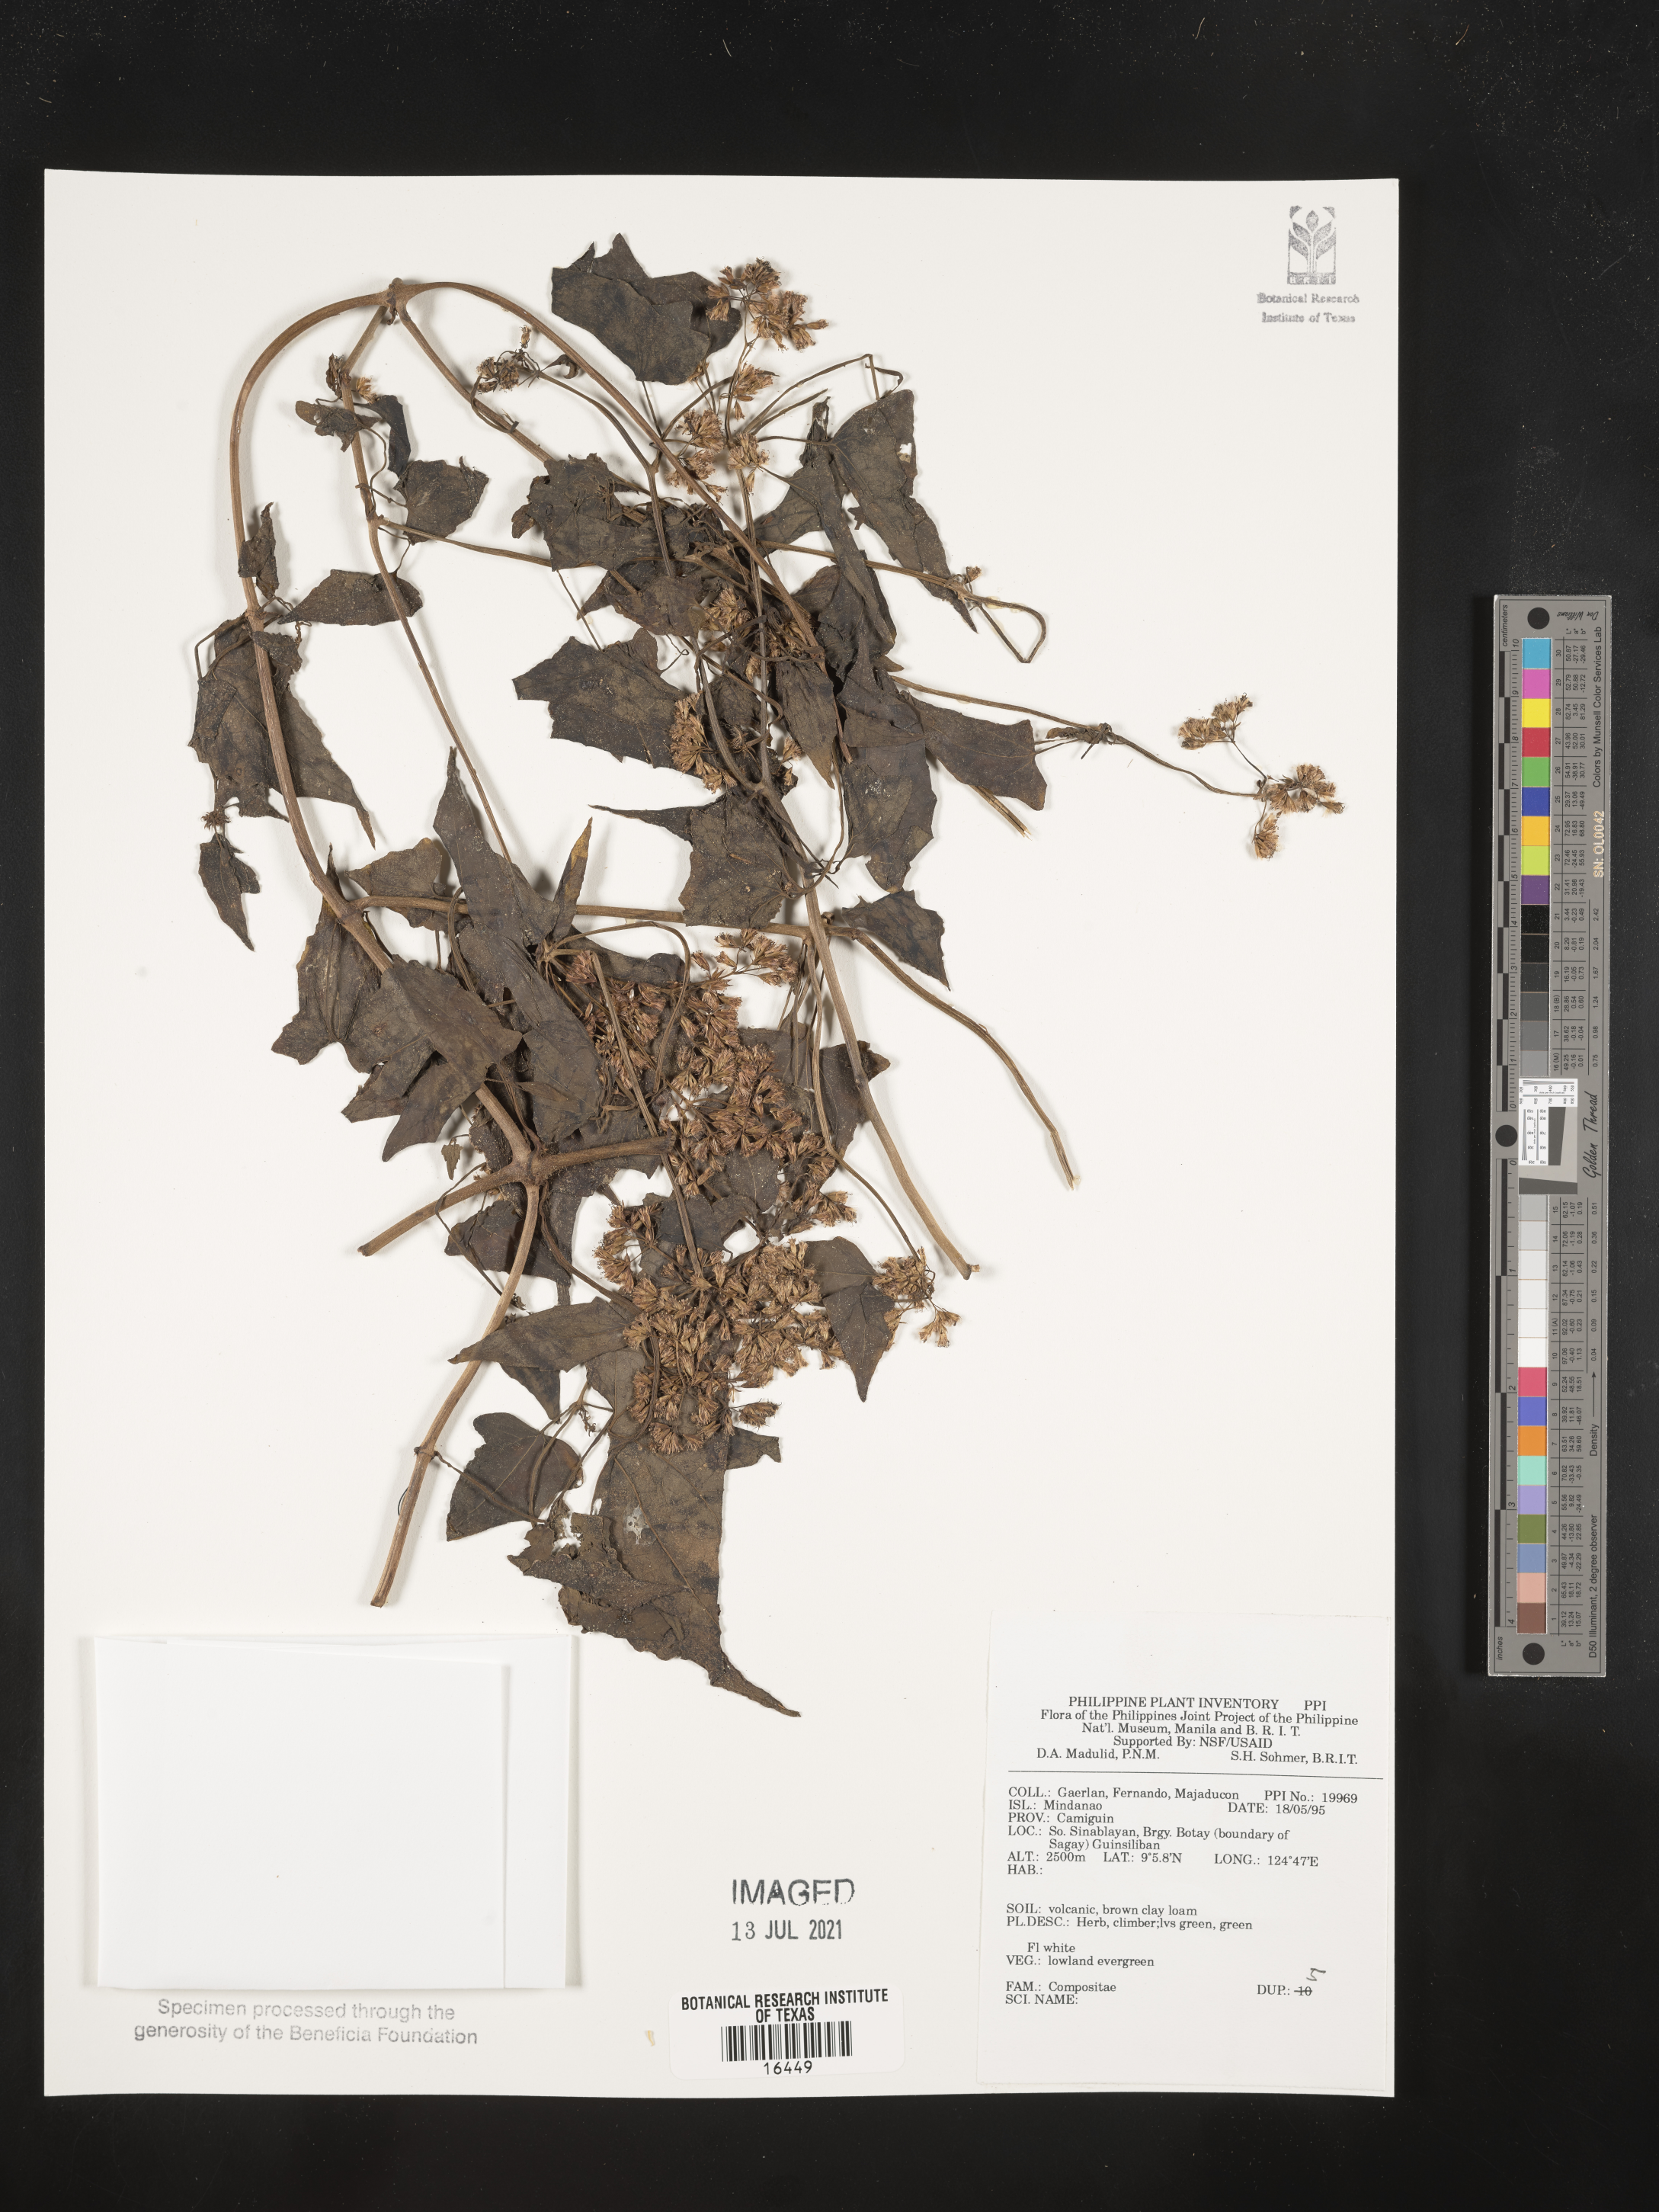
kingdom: Plantae
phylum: Tracheophyta
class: Magnoliopsida
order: Asterales
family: Asteraceae
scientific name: Asteraceae
